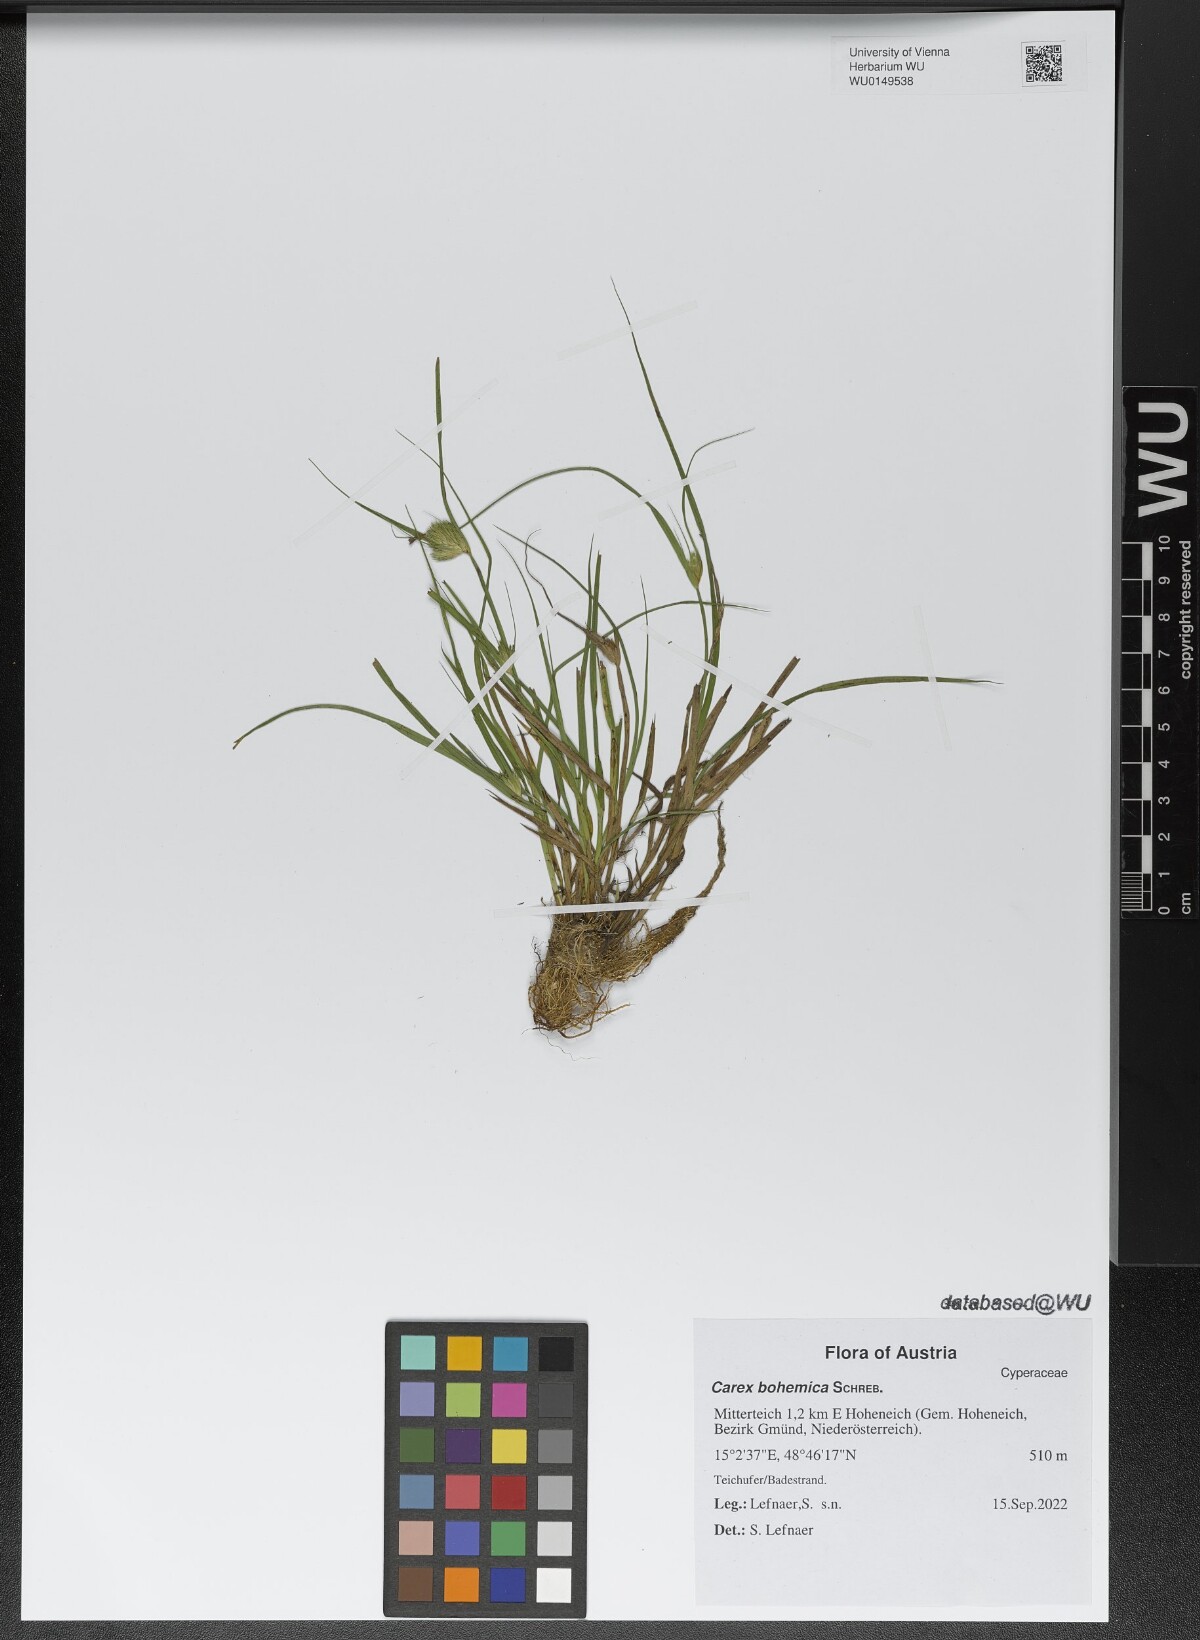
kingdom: Plantae
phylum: Tracheophyta
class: Liliopsida
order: Poales
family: Cyperaceae
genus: Carex
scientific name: Carex bohemica
